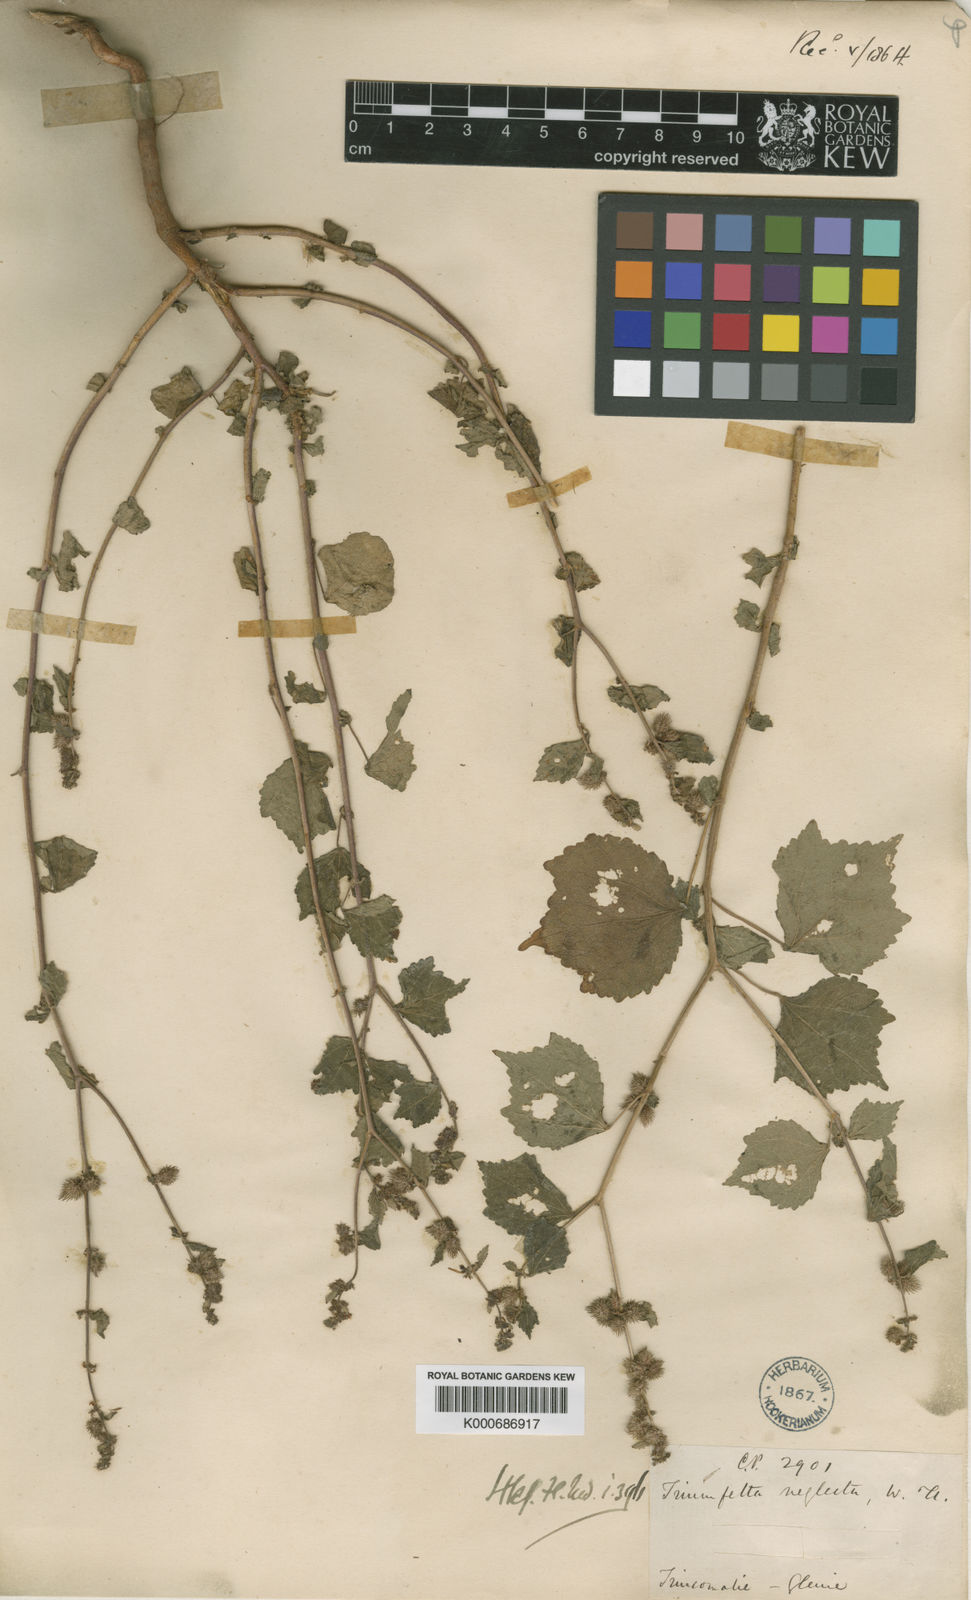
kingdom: Plantae
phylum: Tracheophyta
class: Magnoliopsida
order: Malvales
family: Malvaceae
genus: Triumfetta
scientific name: Triumfetta pentandra
